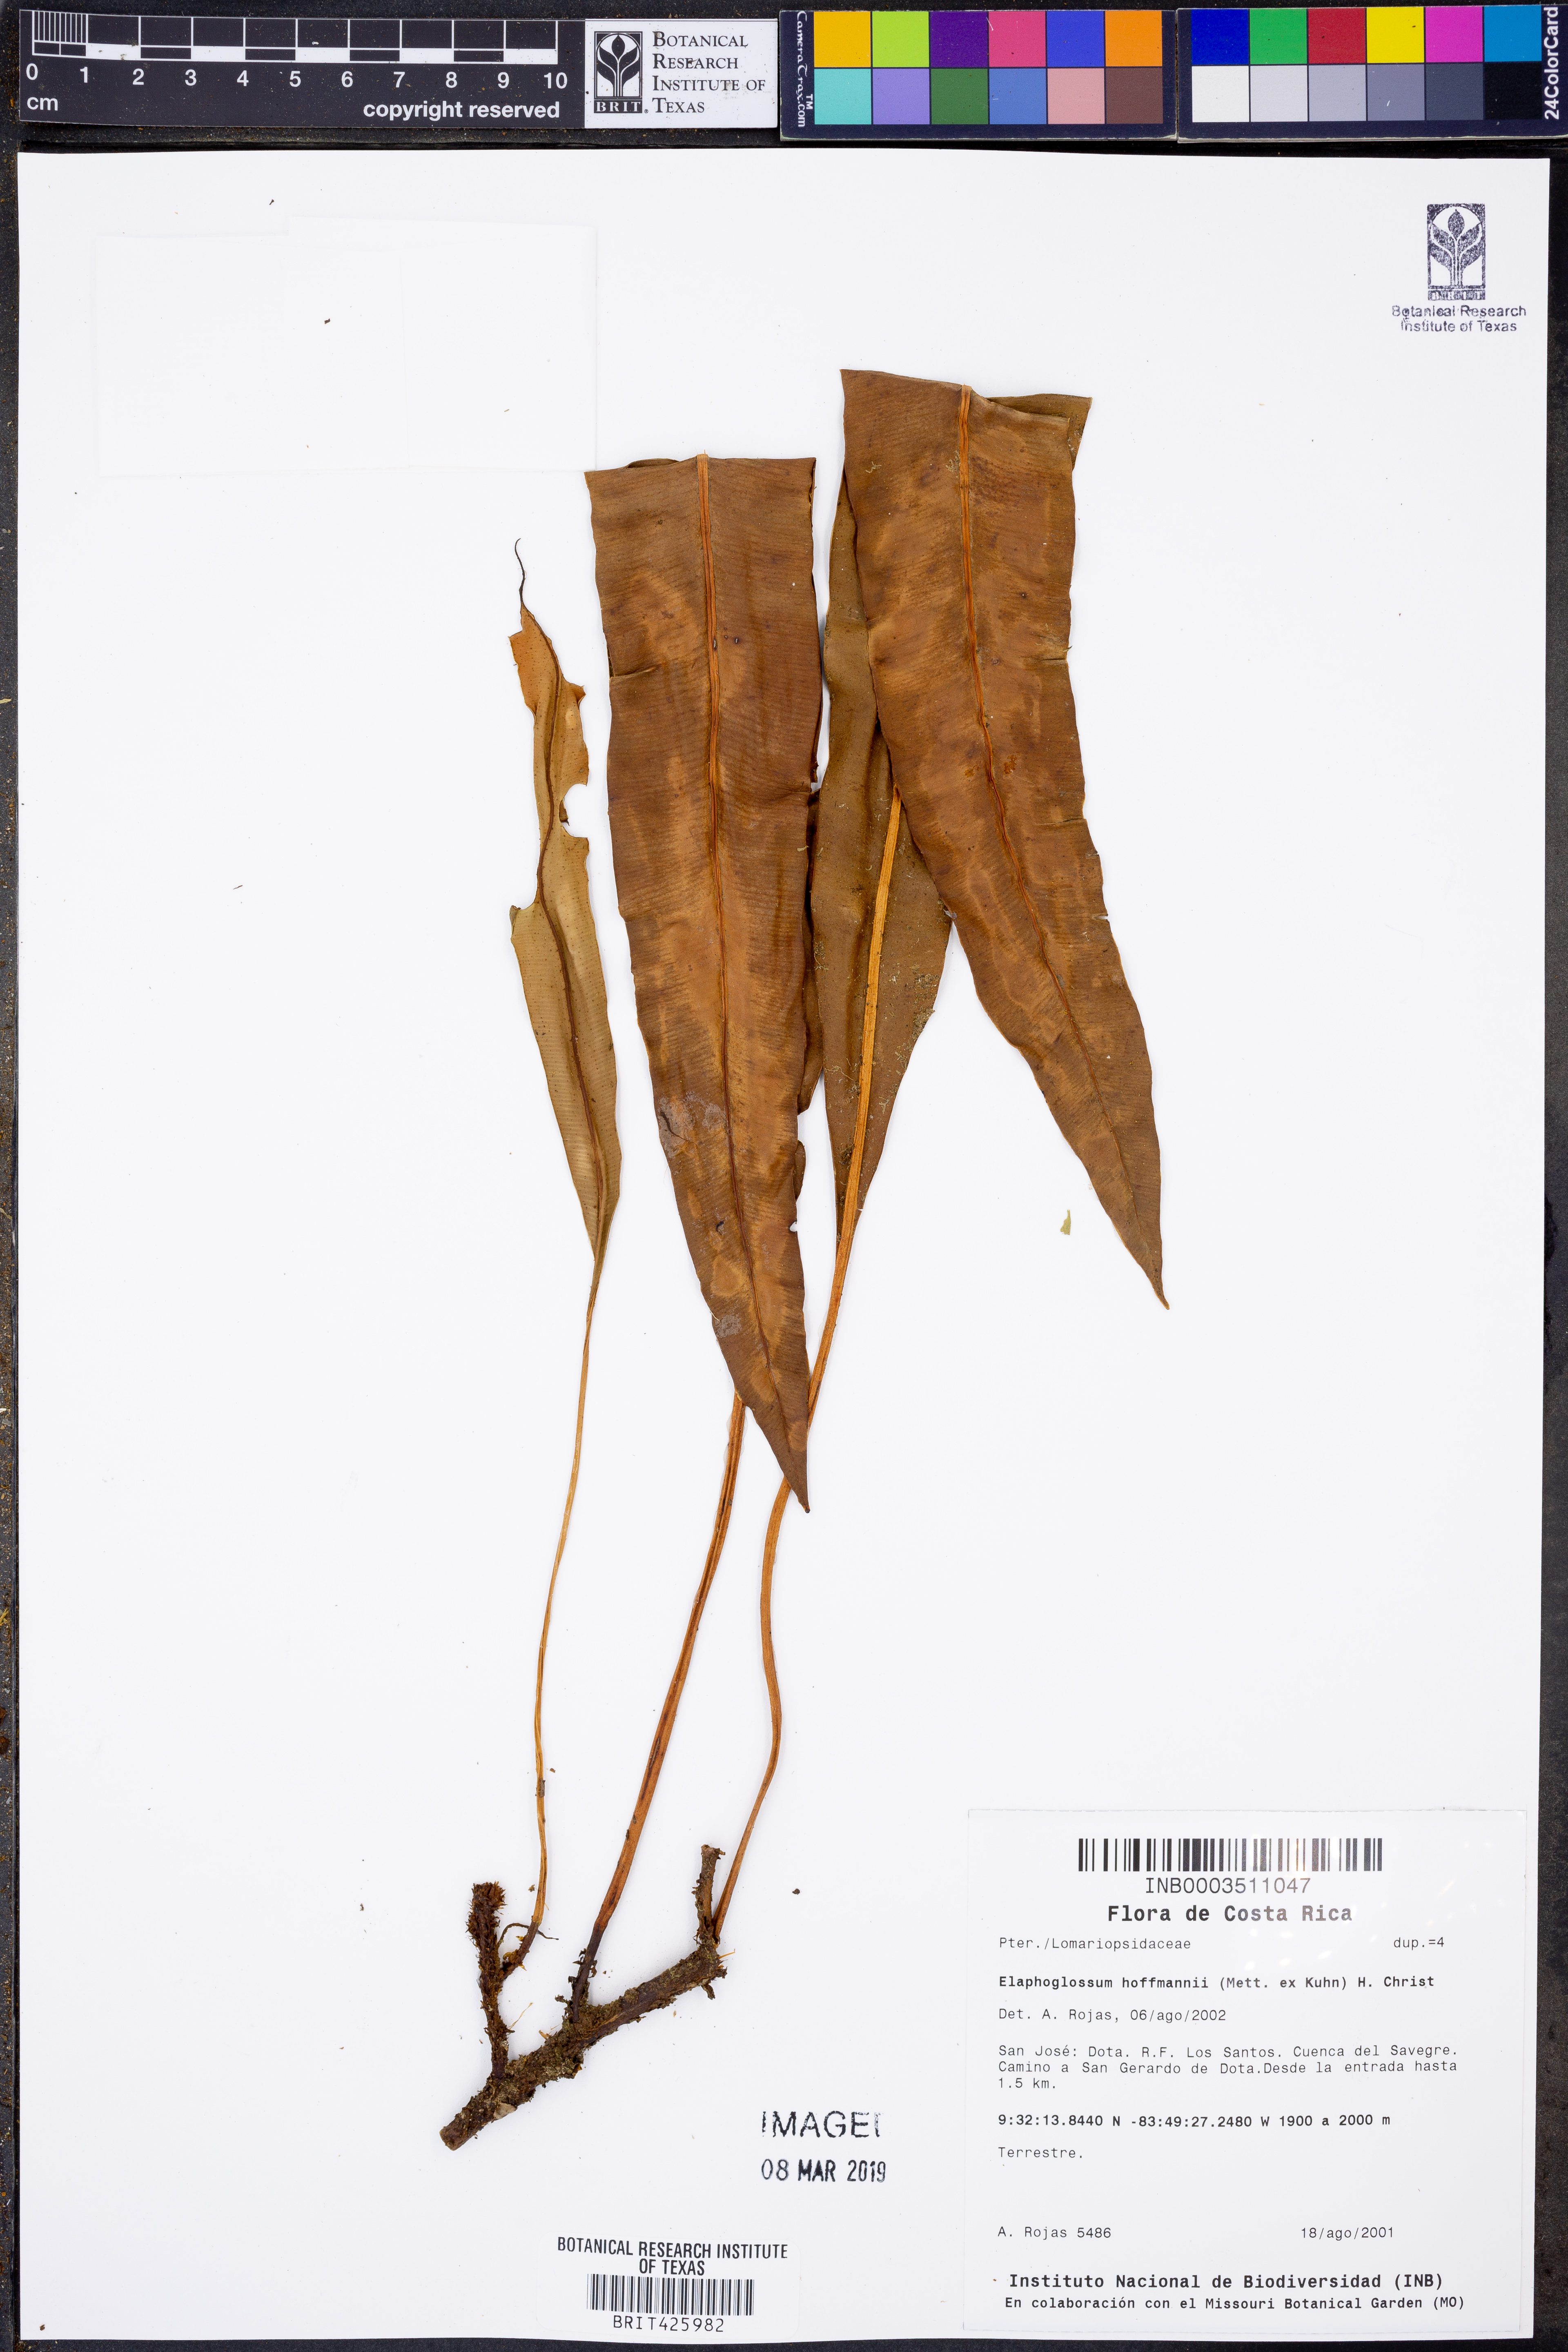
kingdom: Plantae
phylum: Tracheophyta
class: Polypodiopsida
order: Polypodiales
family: Dryopteridaceae
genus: Elaphoglossum
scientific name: Elaphoglossum hoffmannii
